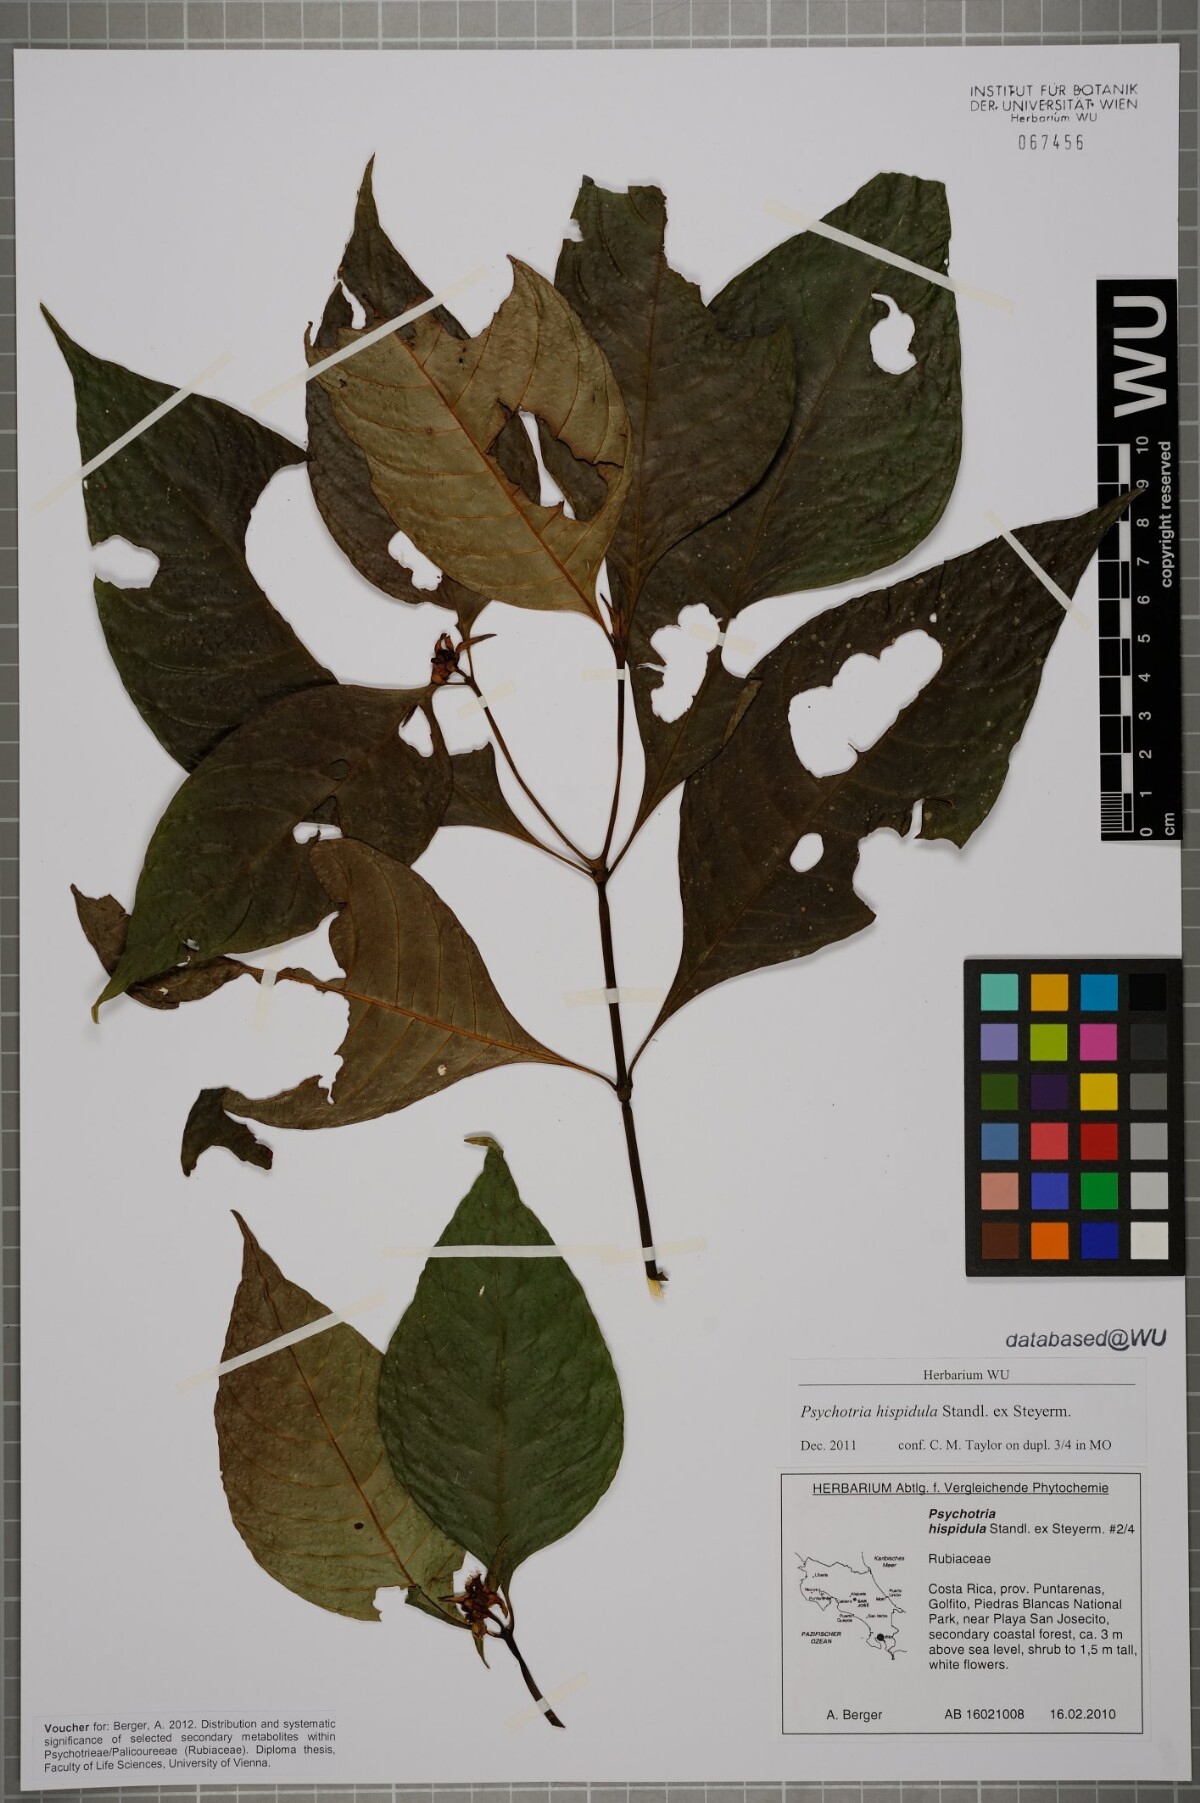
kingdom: Plantae
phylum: Tracheophyta
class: Magnoliopsida
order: Gentianales
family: Rubiaceae
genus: Palicourea
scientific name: Palicourea longiinvolucrata
